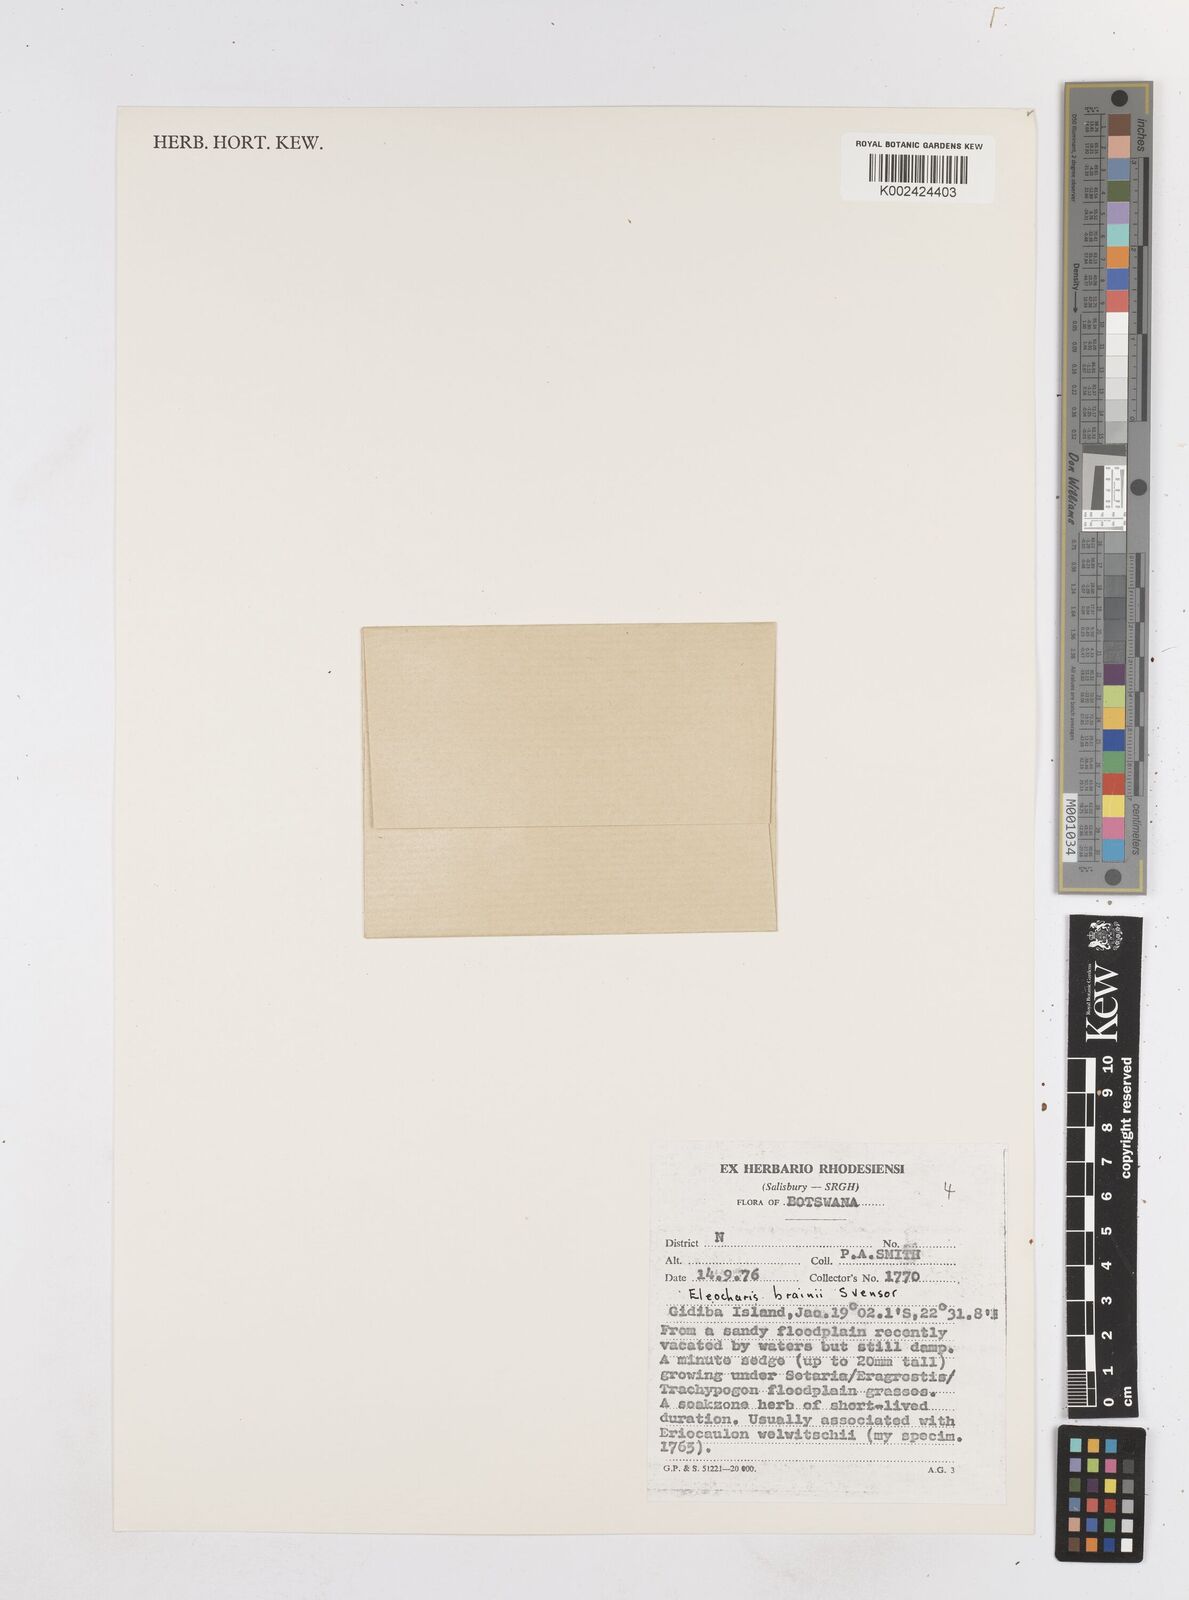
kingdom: Plantae
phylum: Tracheophyta
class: Liliopsida
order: Poales
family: Cyperaceae
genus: Eleocharis
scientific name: Eleocharis brainii
